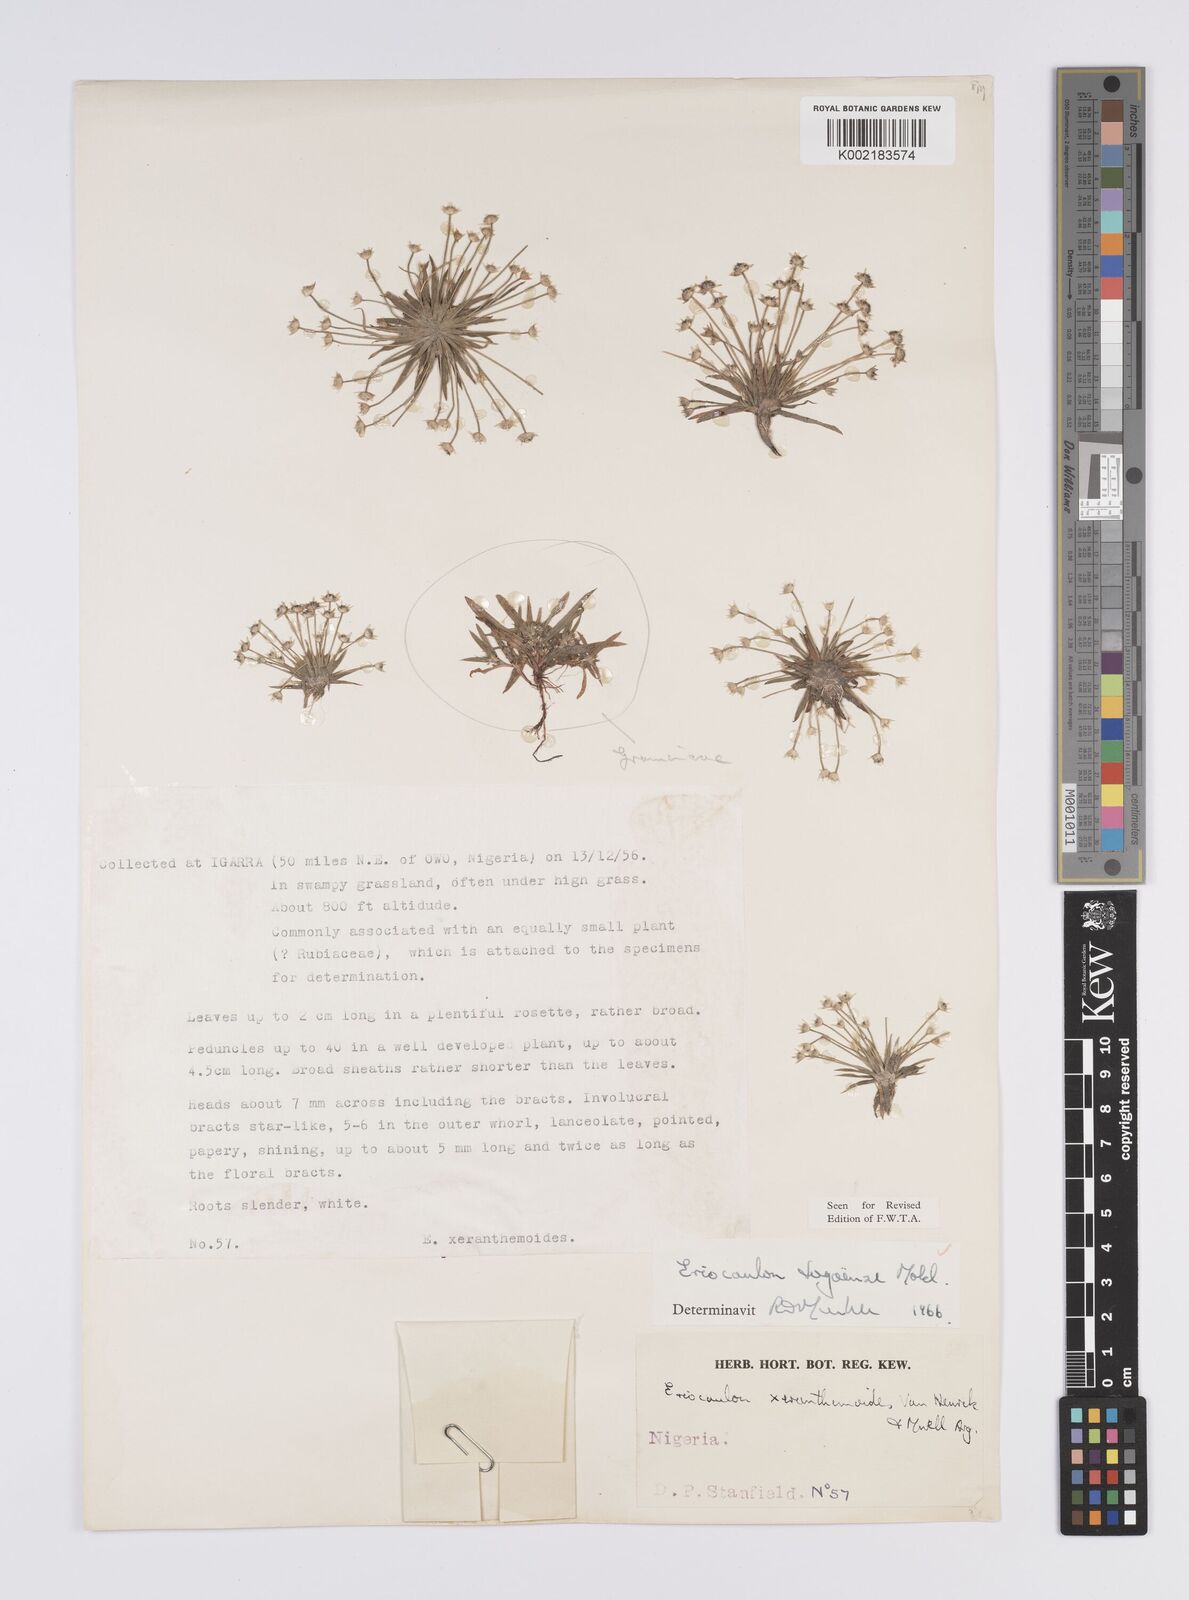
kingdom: Plantae
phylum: Tracheophyta
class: Liliopsida
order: Poales
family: Eriocaulaceae
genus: Eriocaulon
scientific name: Eriocaulon togoense
